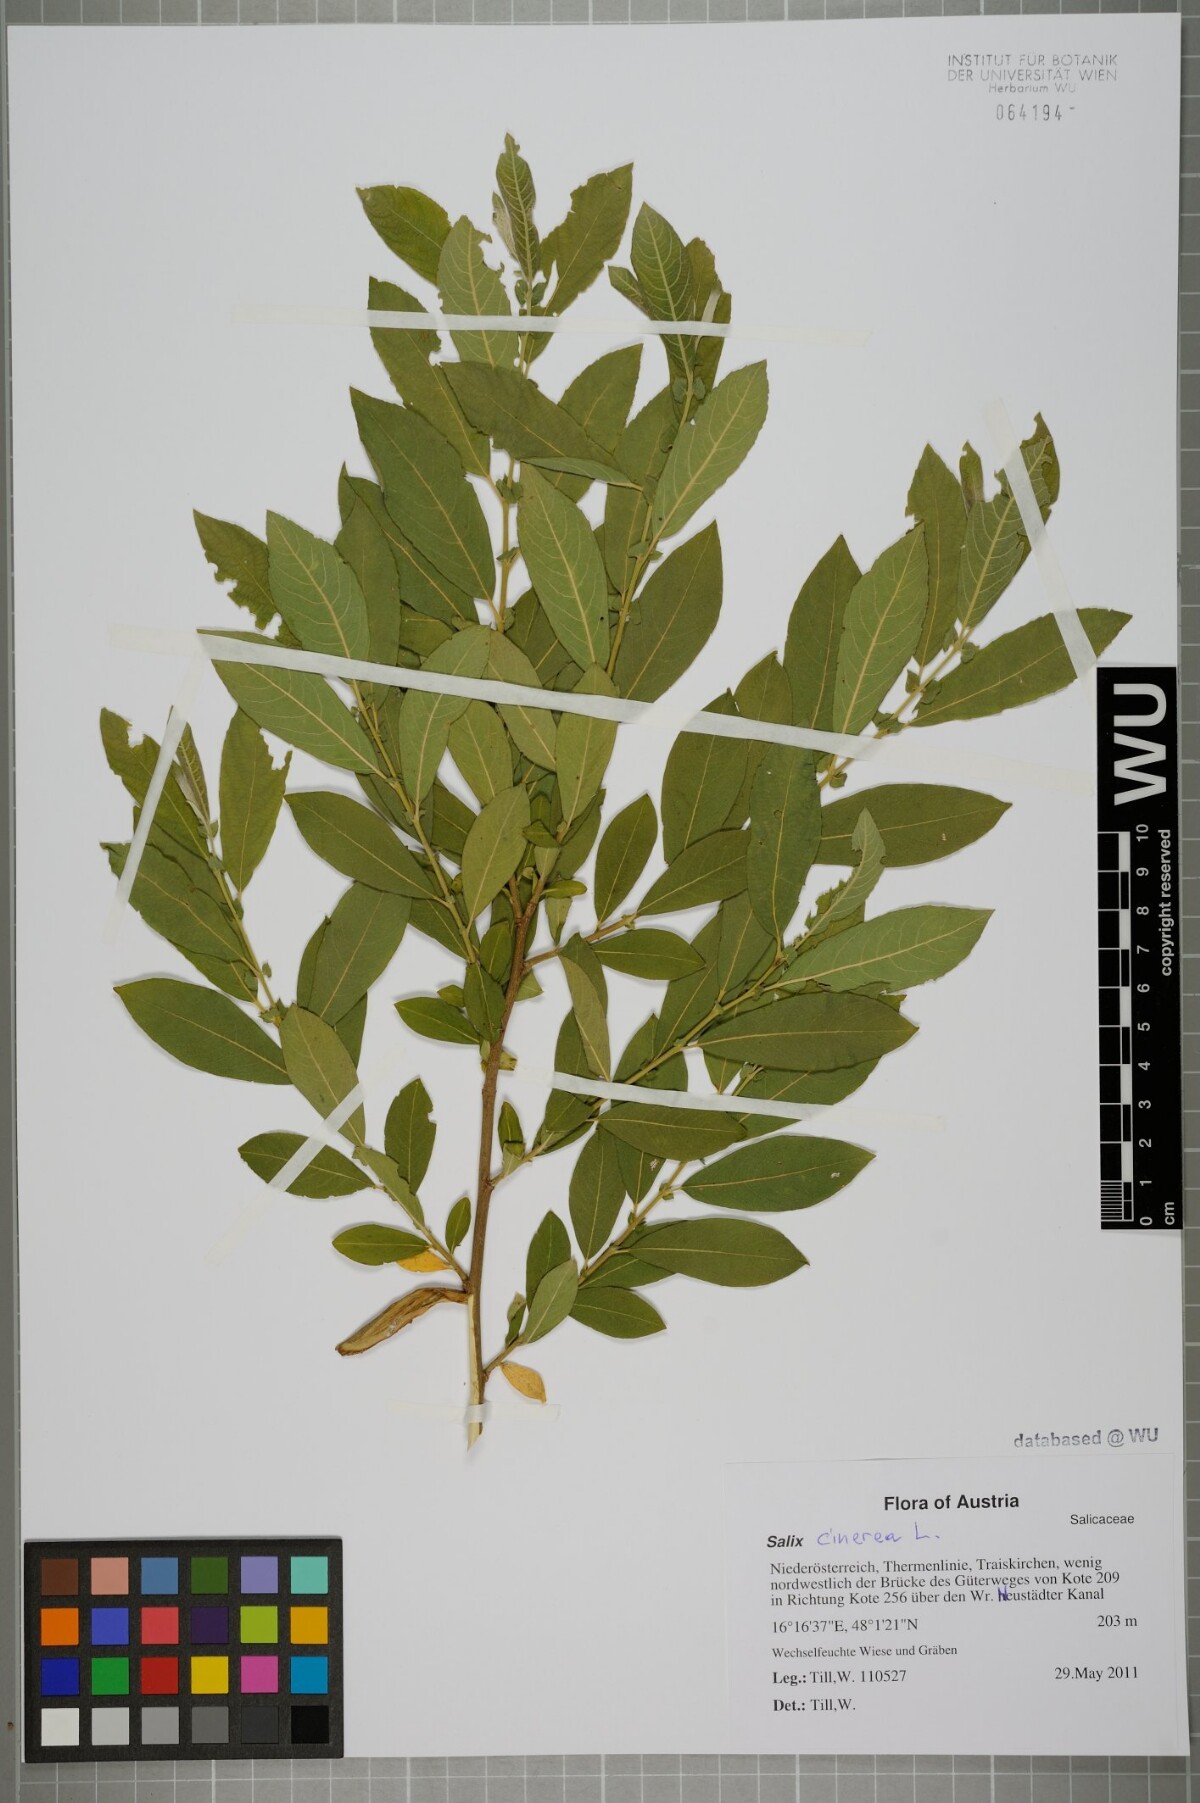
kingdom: Plantae
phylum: Tracheophyta
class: Magnoliopsida
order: Malpighiales
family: Salicaceae
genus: Salix
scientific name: Salix cinerea
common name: Common sallow
